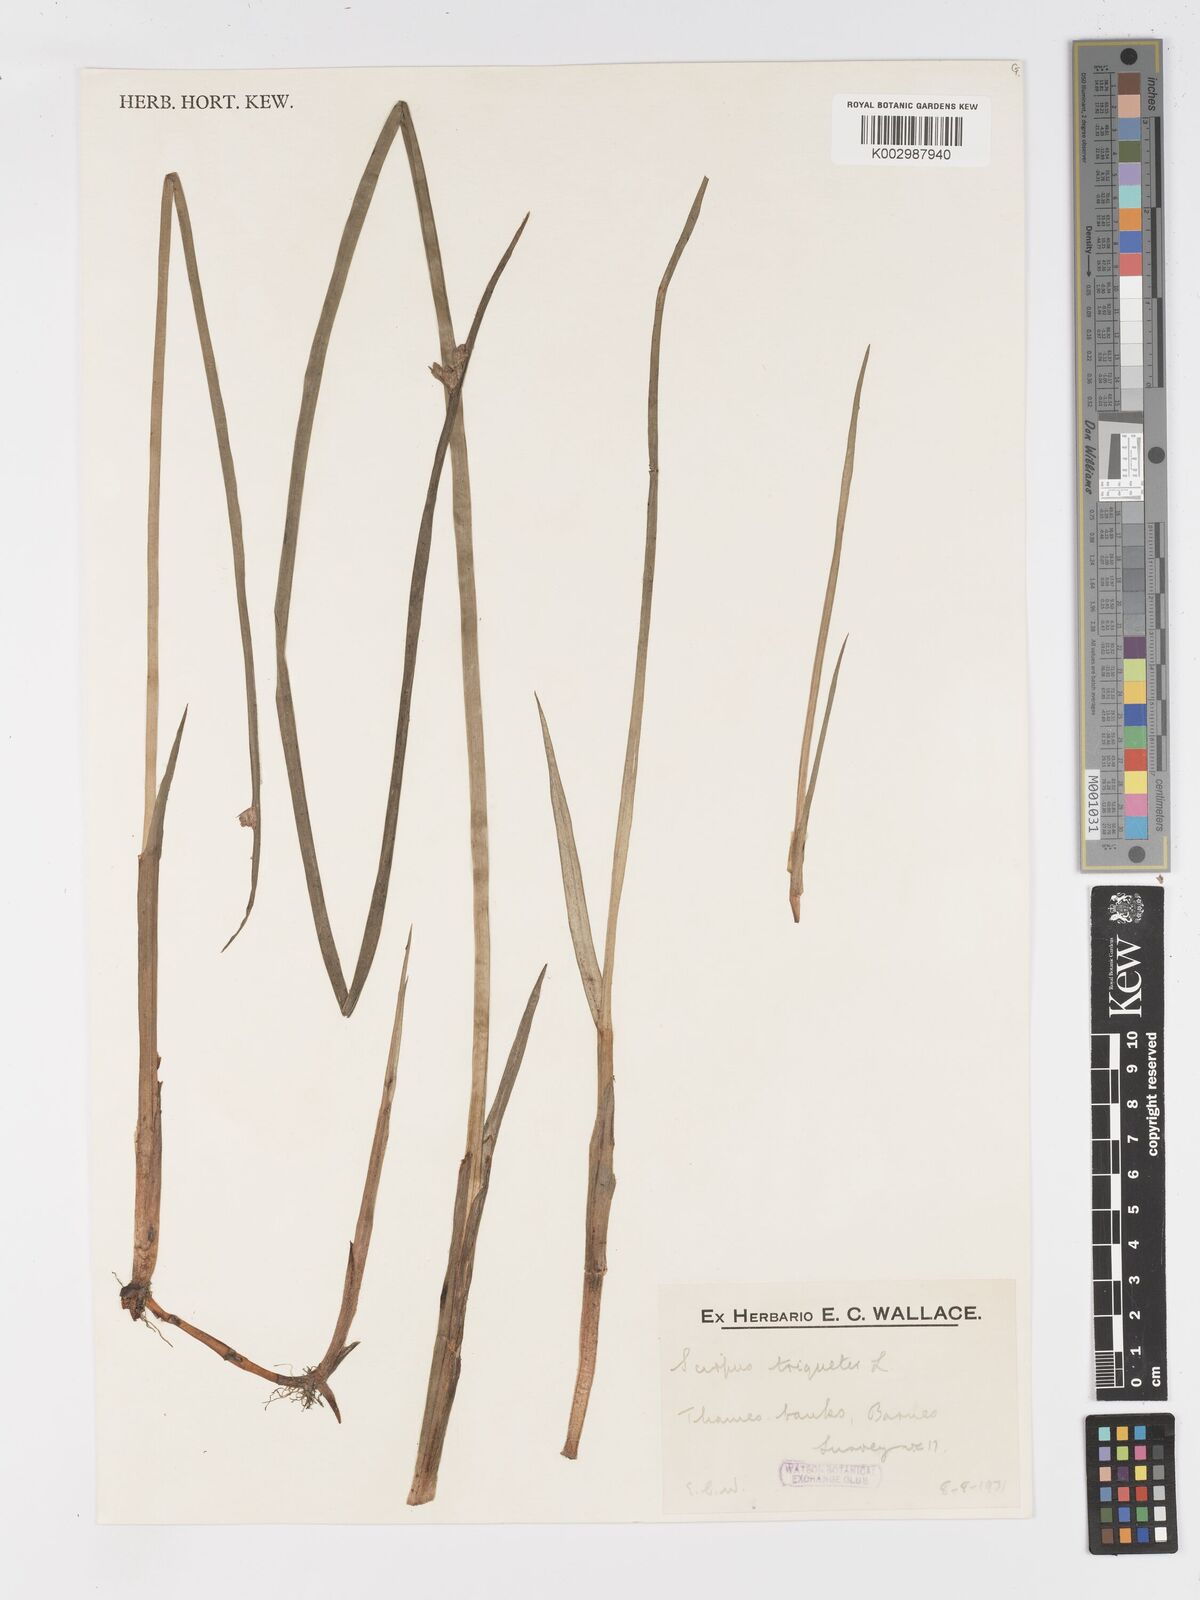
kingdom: Plantae
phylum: Tracheophyta
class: Liliopsida
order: Poales
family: Cyperaceae
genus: Schoenoplectus
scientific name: Schoenoplectus triqueter
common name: Triangular club-rush
